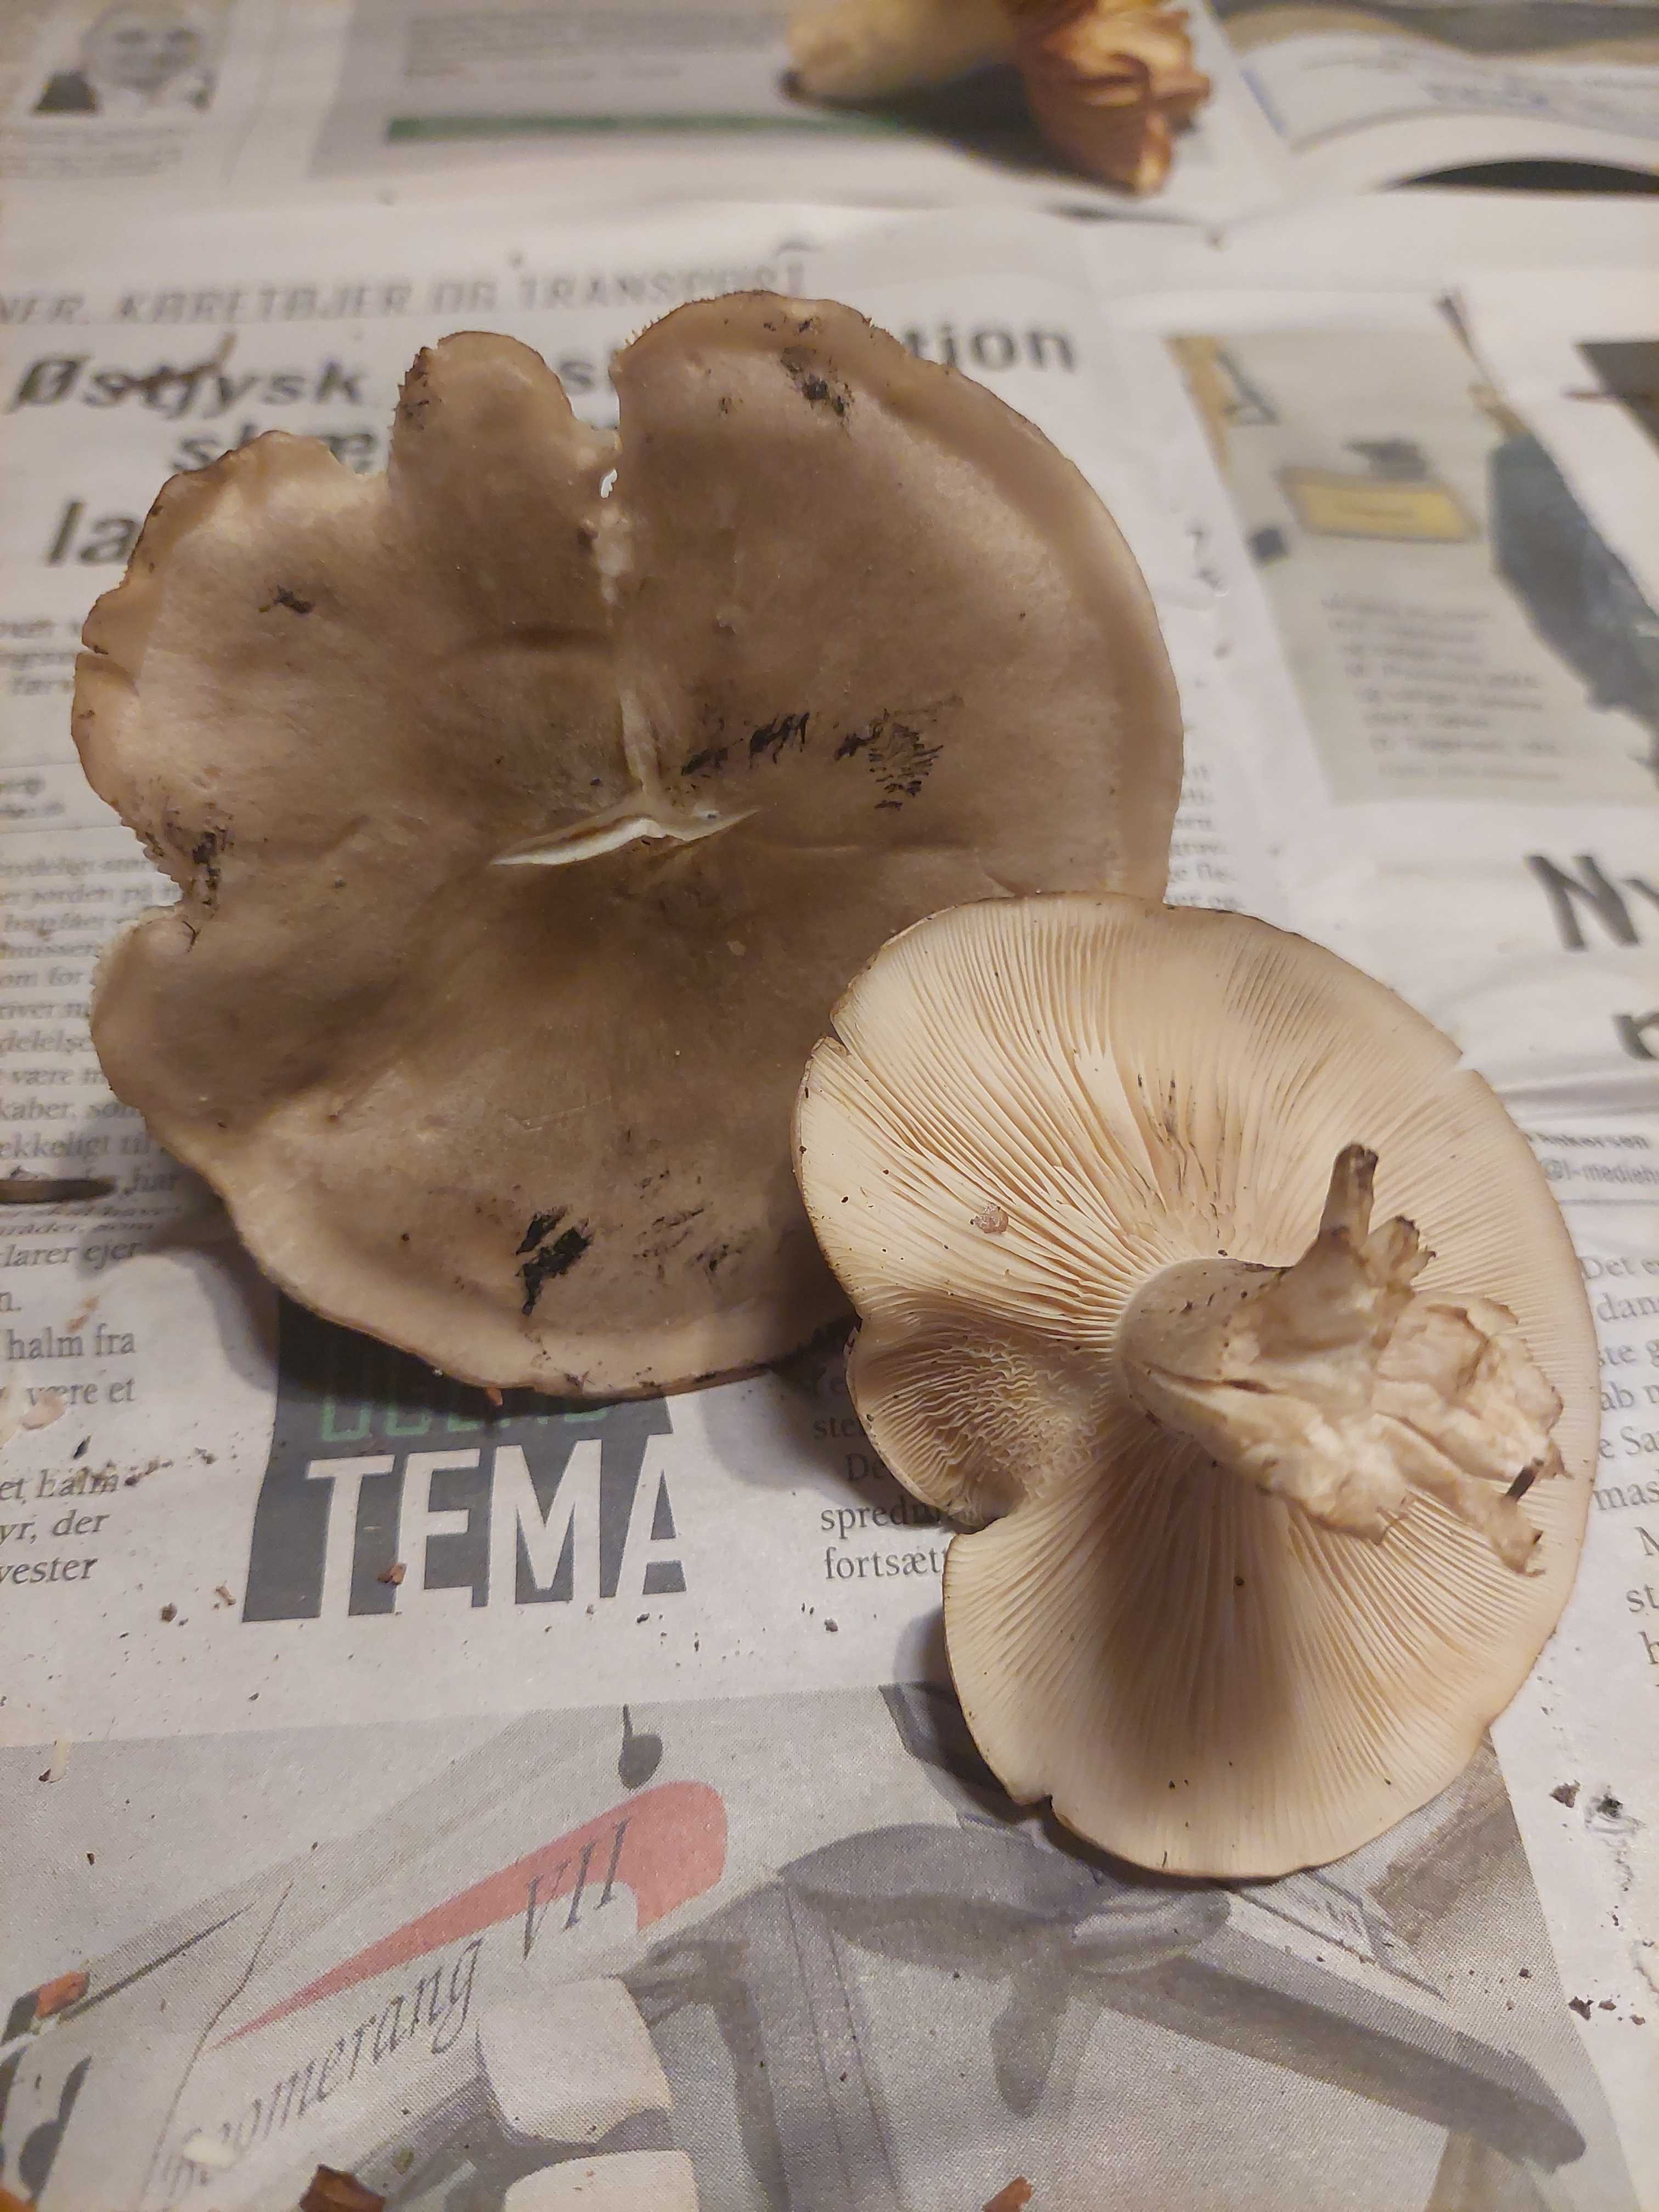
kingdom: Fungi
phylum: Basidiomycota
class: Agaricomycetes
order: Agaricales
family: Tricholomataceae
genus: Clitocybe
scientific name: Clitocybe nebularis
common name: tåge-tragthat
